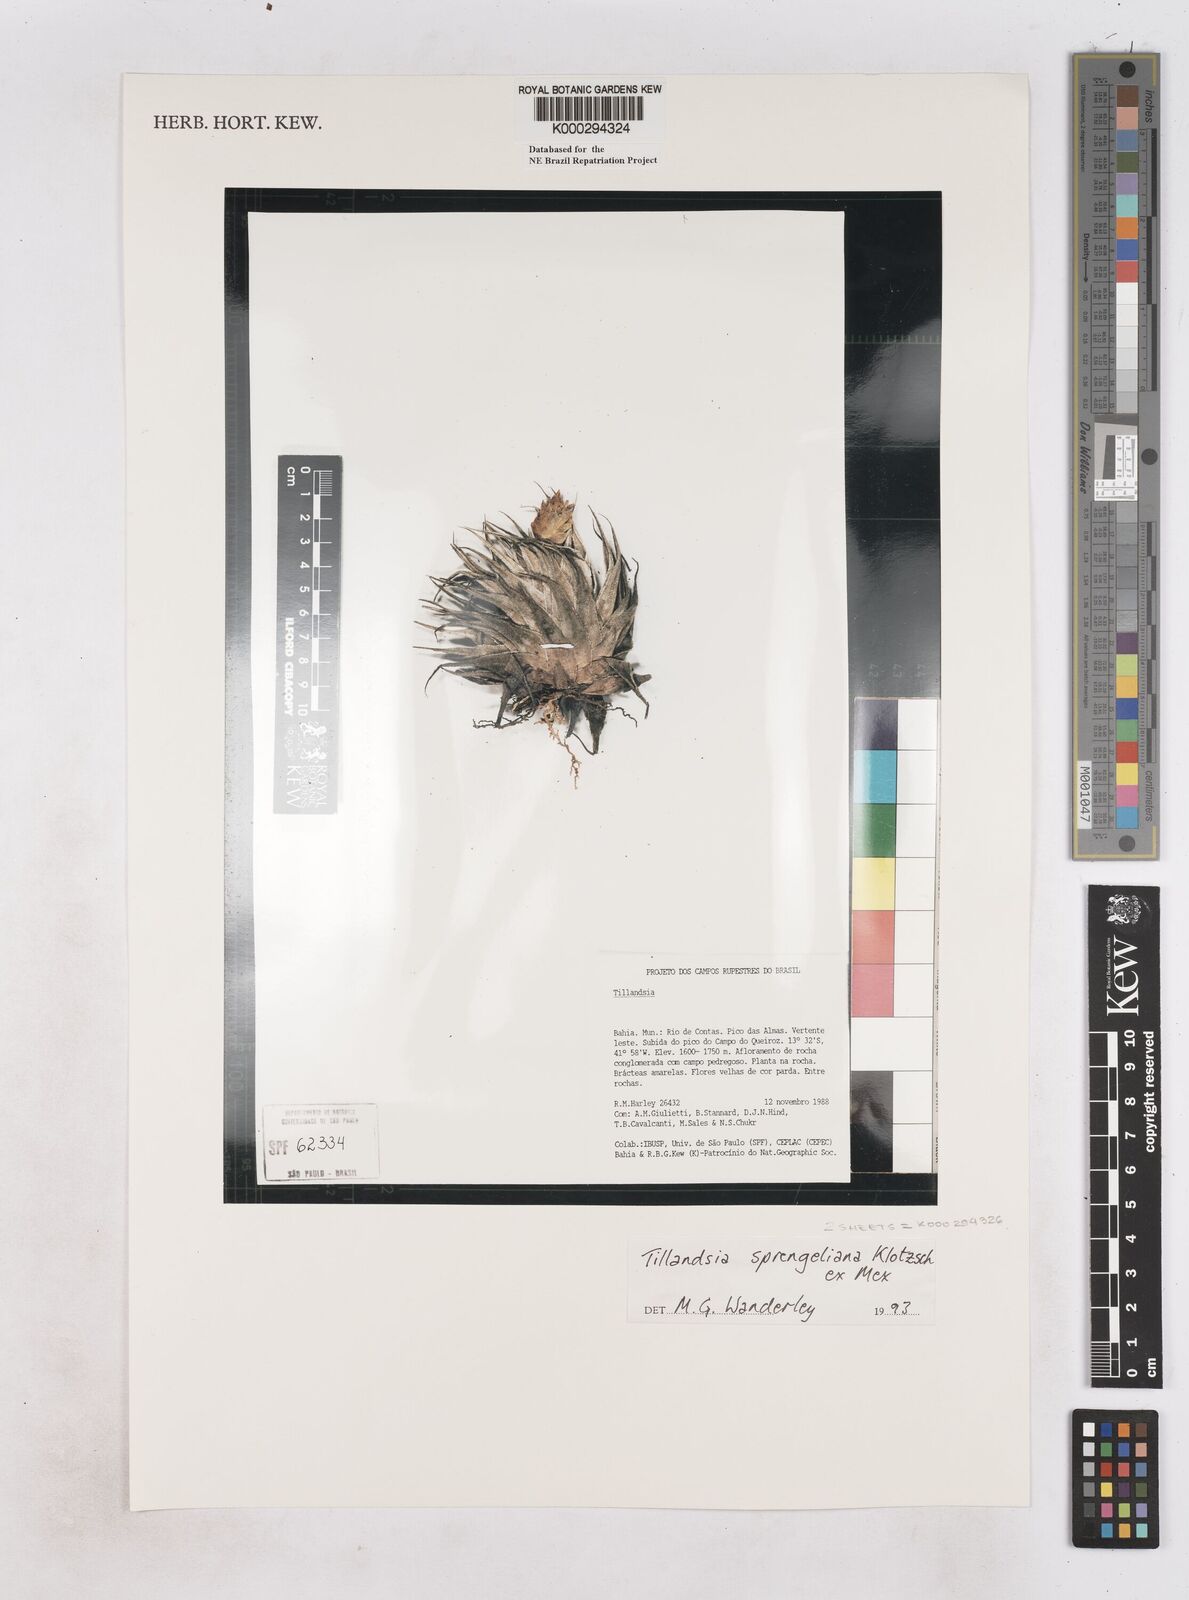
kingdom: Plantae
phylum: Tracheophyta
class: Liliopsida
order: Poales
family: Bromeliaceae
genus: Tillandsia
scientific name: Tillandsia sprengeliana
